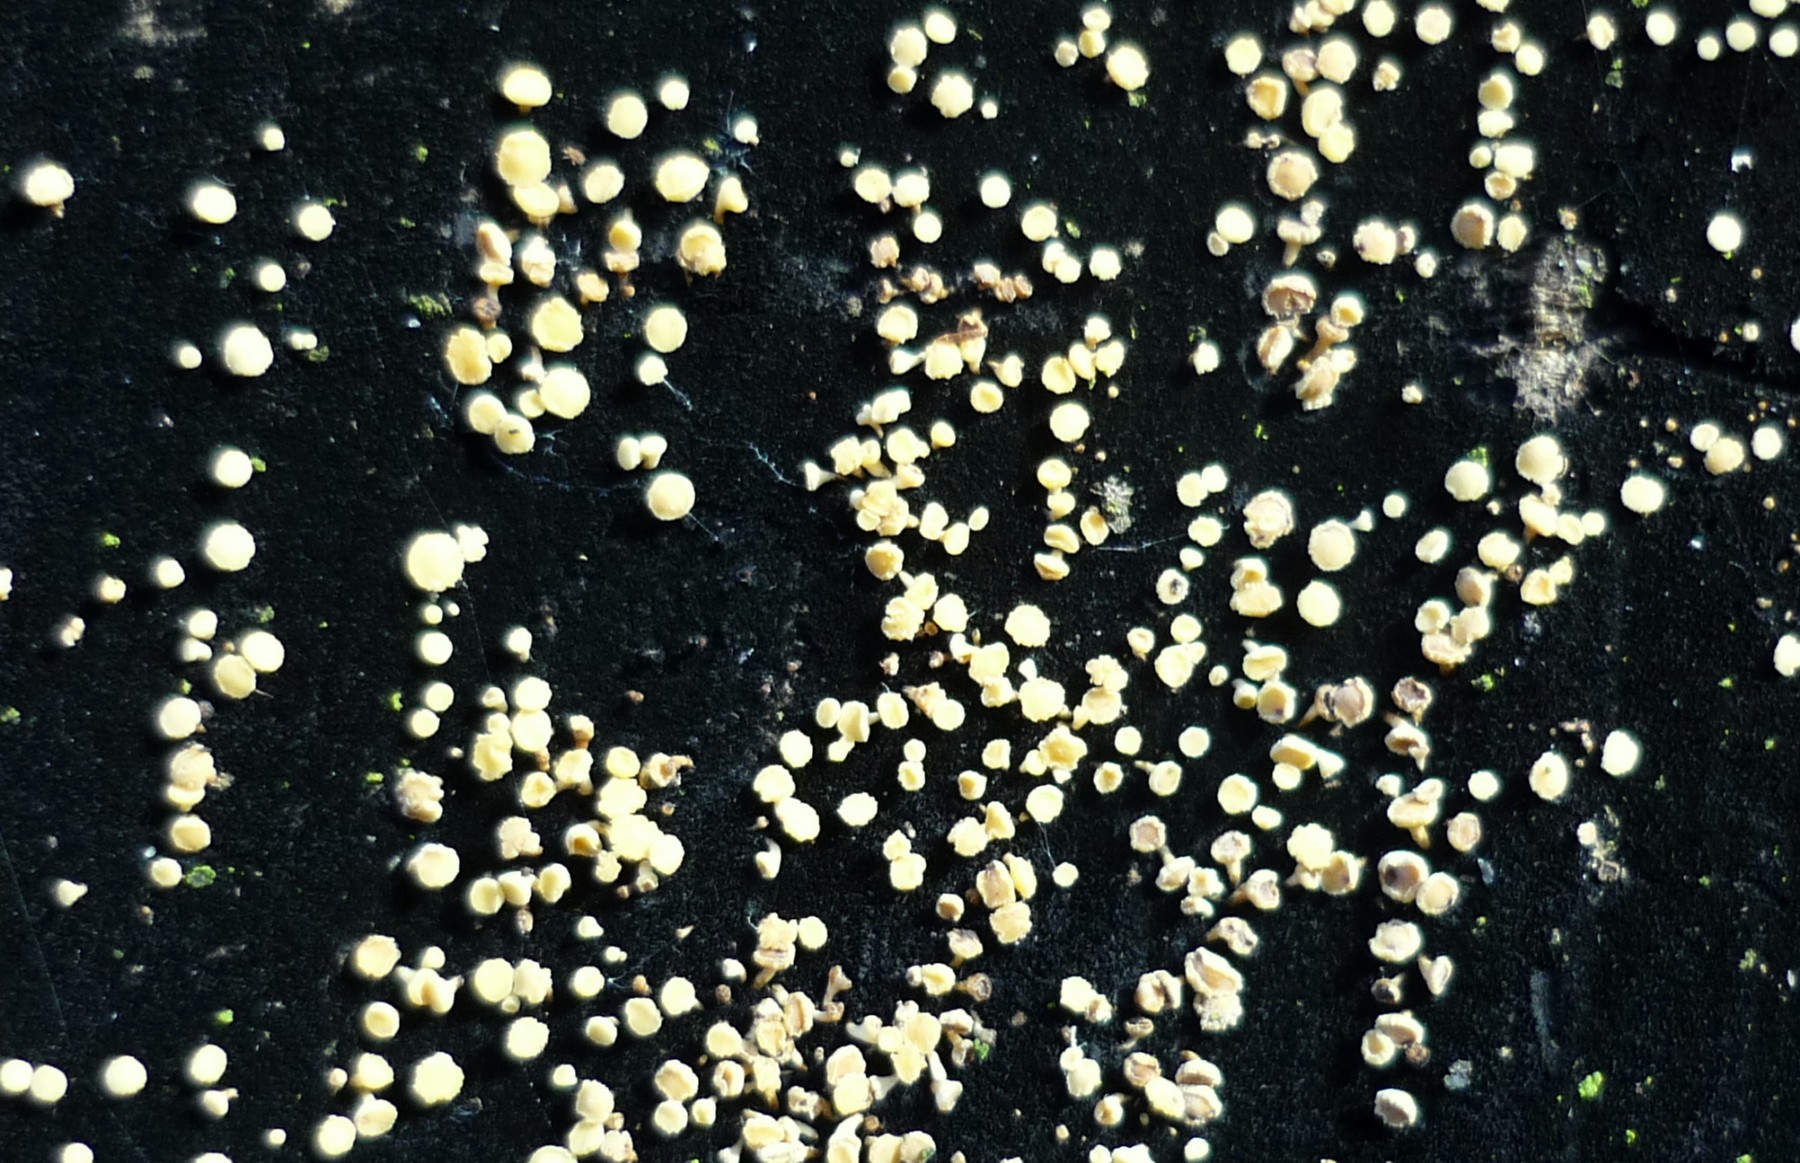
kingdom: Fungi
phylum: Ascomycota
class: Leotiomycetes
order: Helotiales
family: Helotiaceae
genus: Bispora
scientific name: Bispora pallescens
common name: måtte-snitskive
